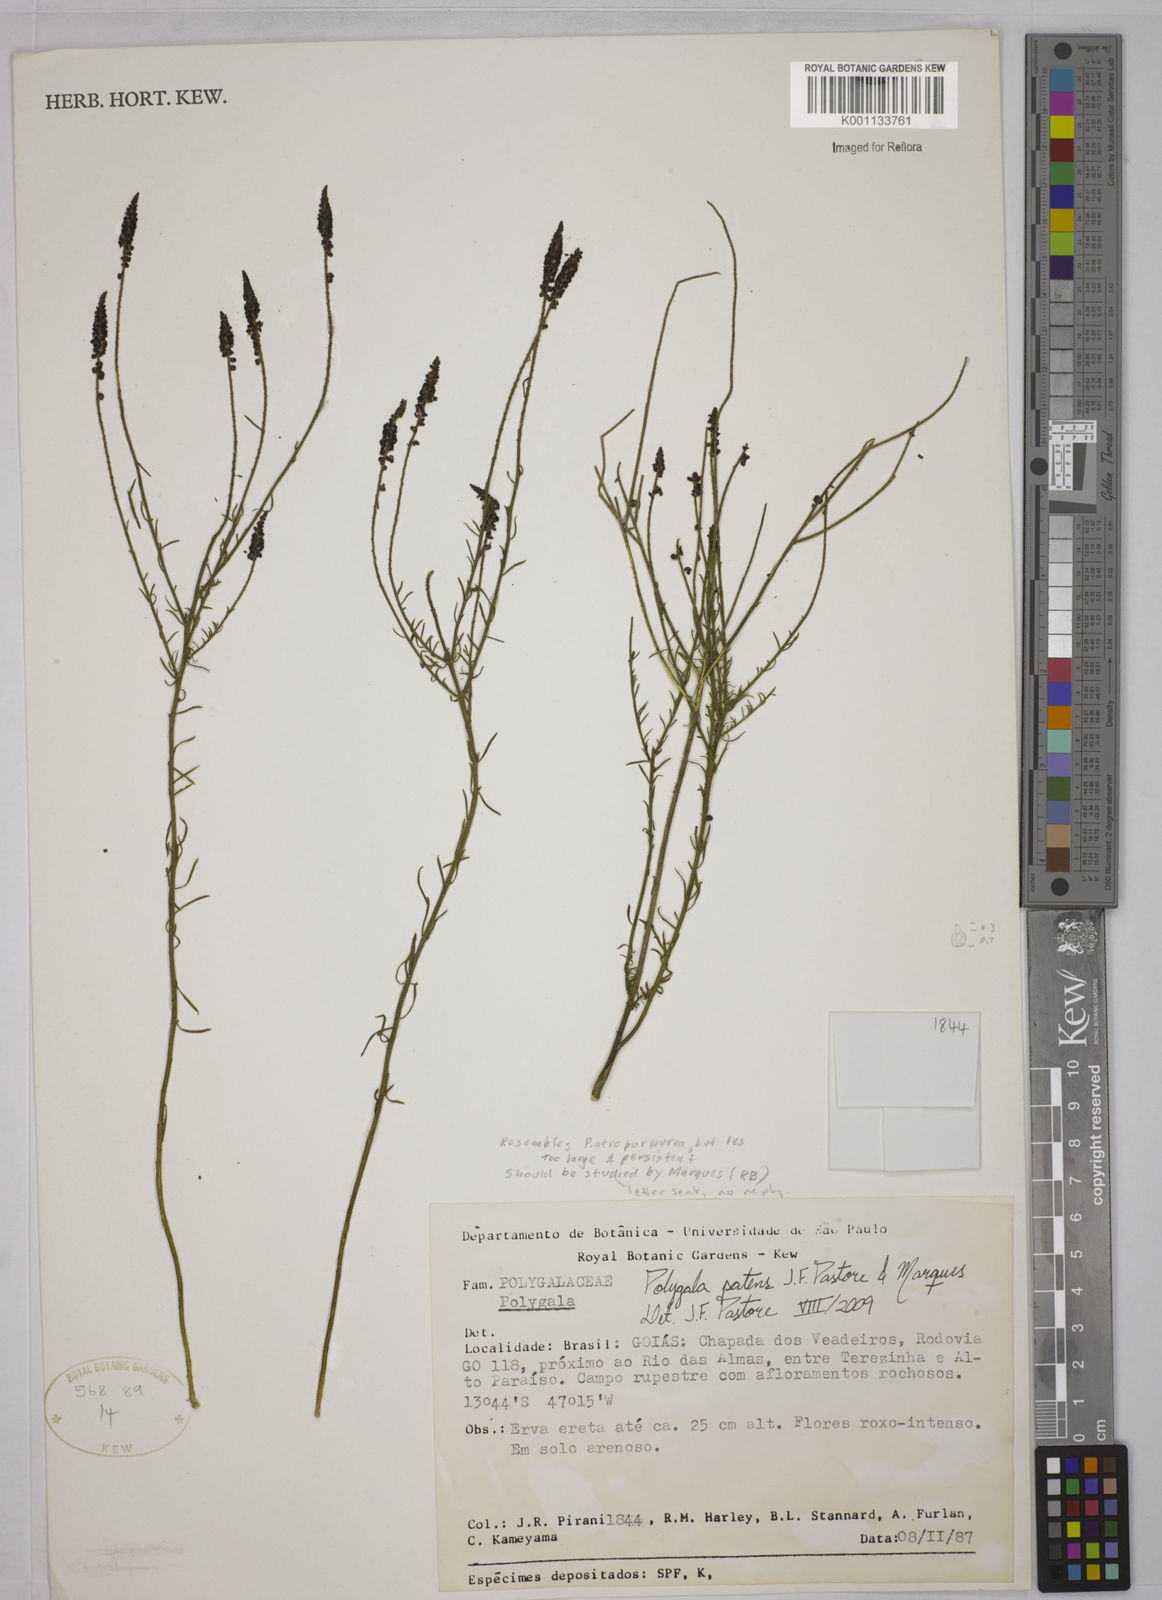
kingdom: Plantae
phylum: Tracheophyta
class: Magnoliopsida
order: Fabales
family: Polygalaceae
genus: Polygala
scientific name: Polygala patens
